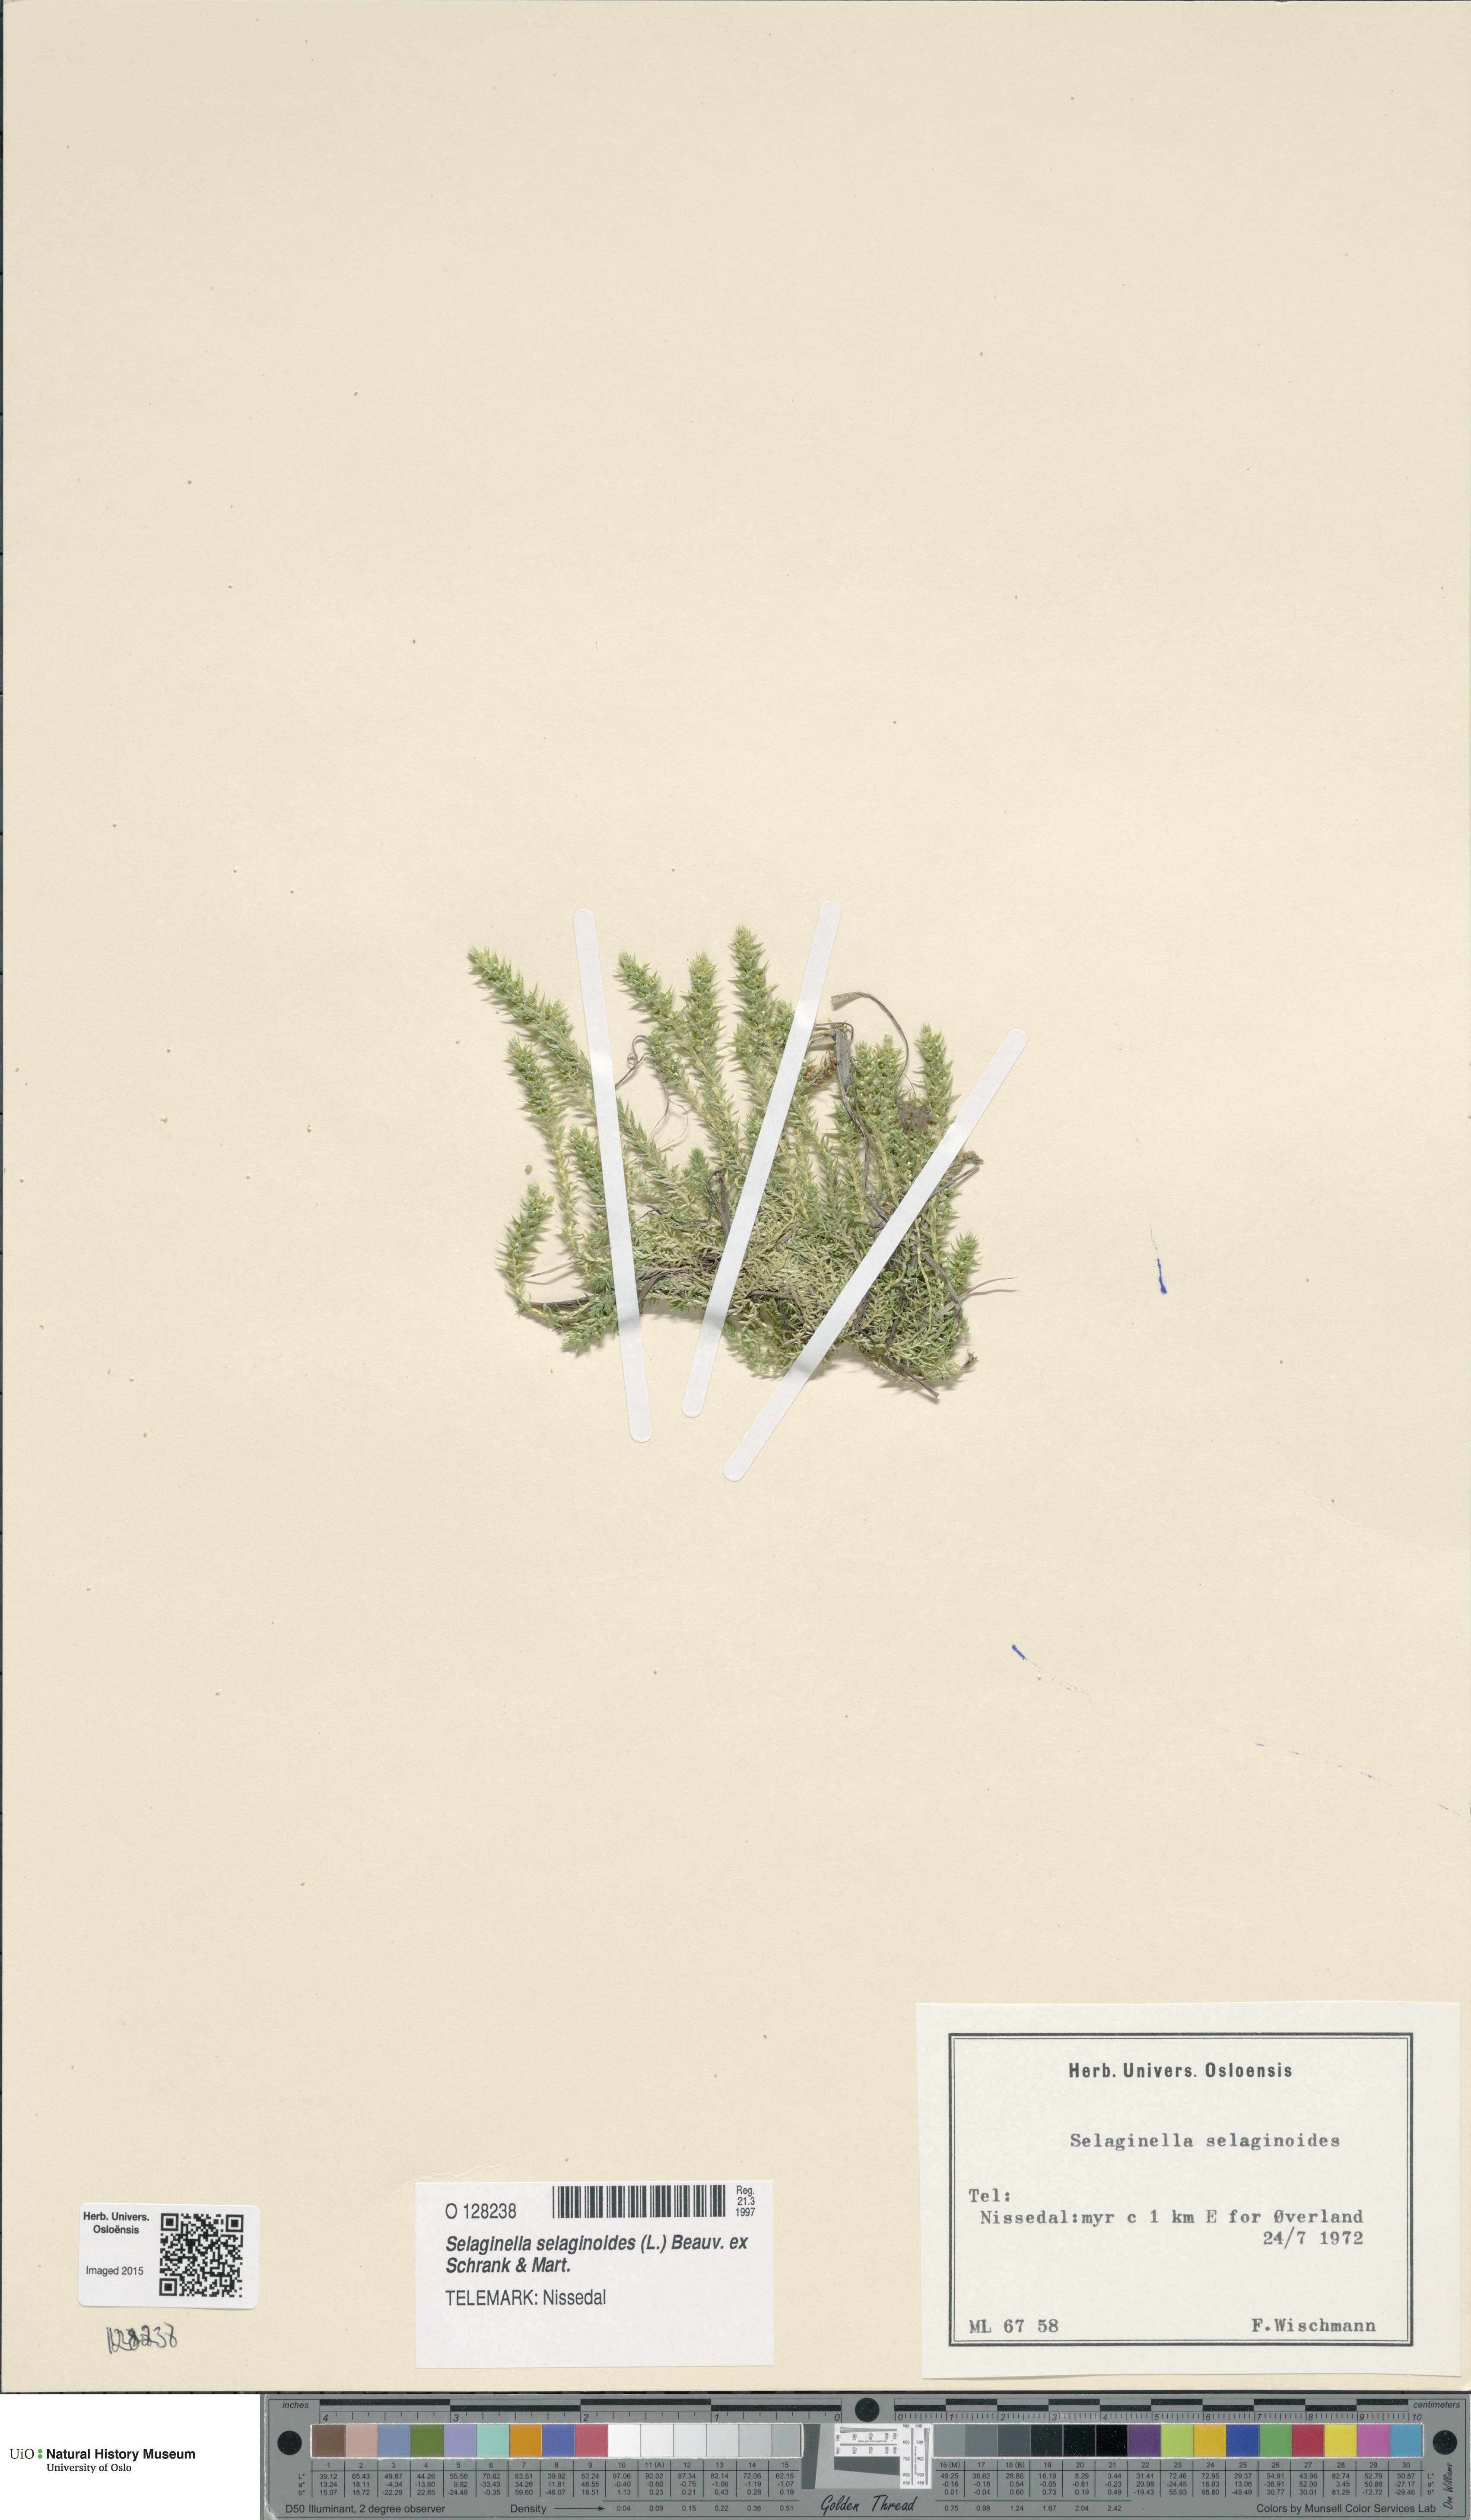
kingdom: Plantae
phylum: Tracheophyta
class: Lycopodiopsida
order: Selaginellales
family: Selaginellaceae
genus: Selaginella
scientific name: Selaginella selaginoides
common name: Prickly mountain-moss
